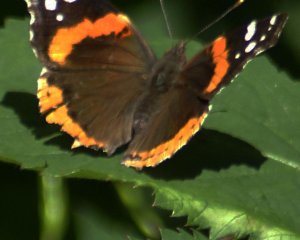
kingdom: Animalia
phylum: Arthropoda
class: Insecta
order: Lepidoptera
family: Nymphalidae
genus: Vanessa
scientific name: Vanessa atalanta
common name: Red Admiral
